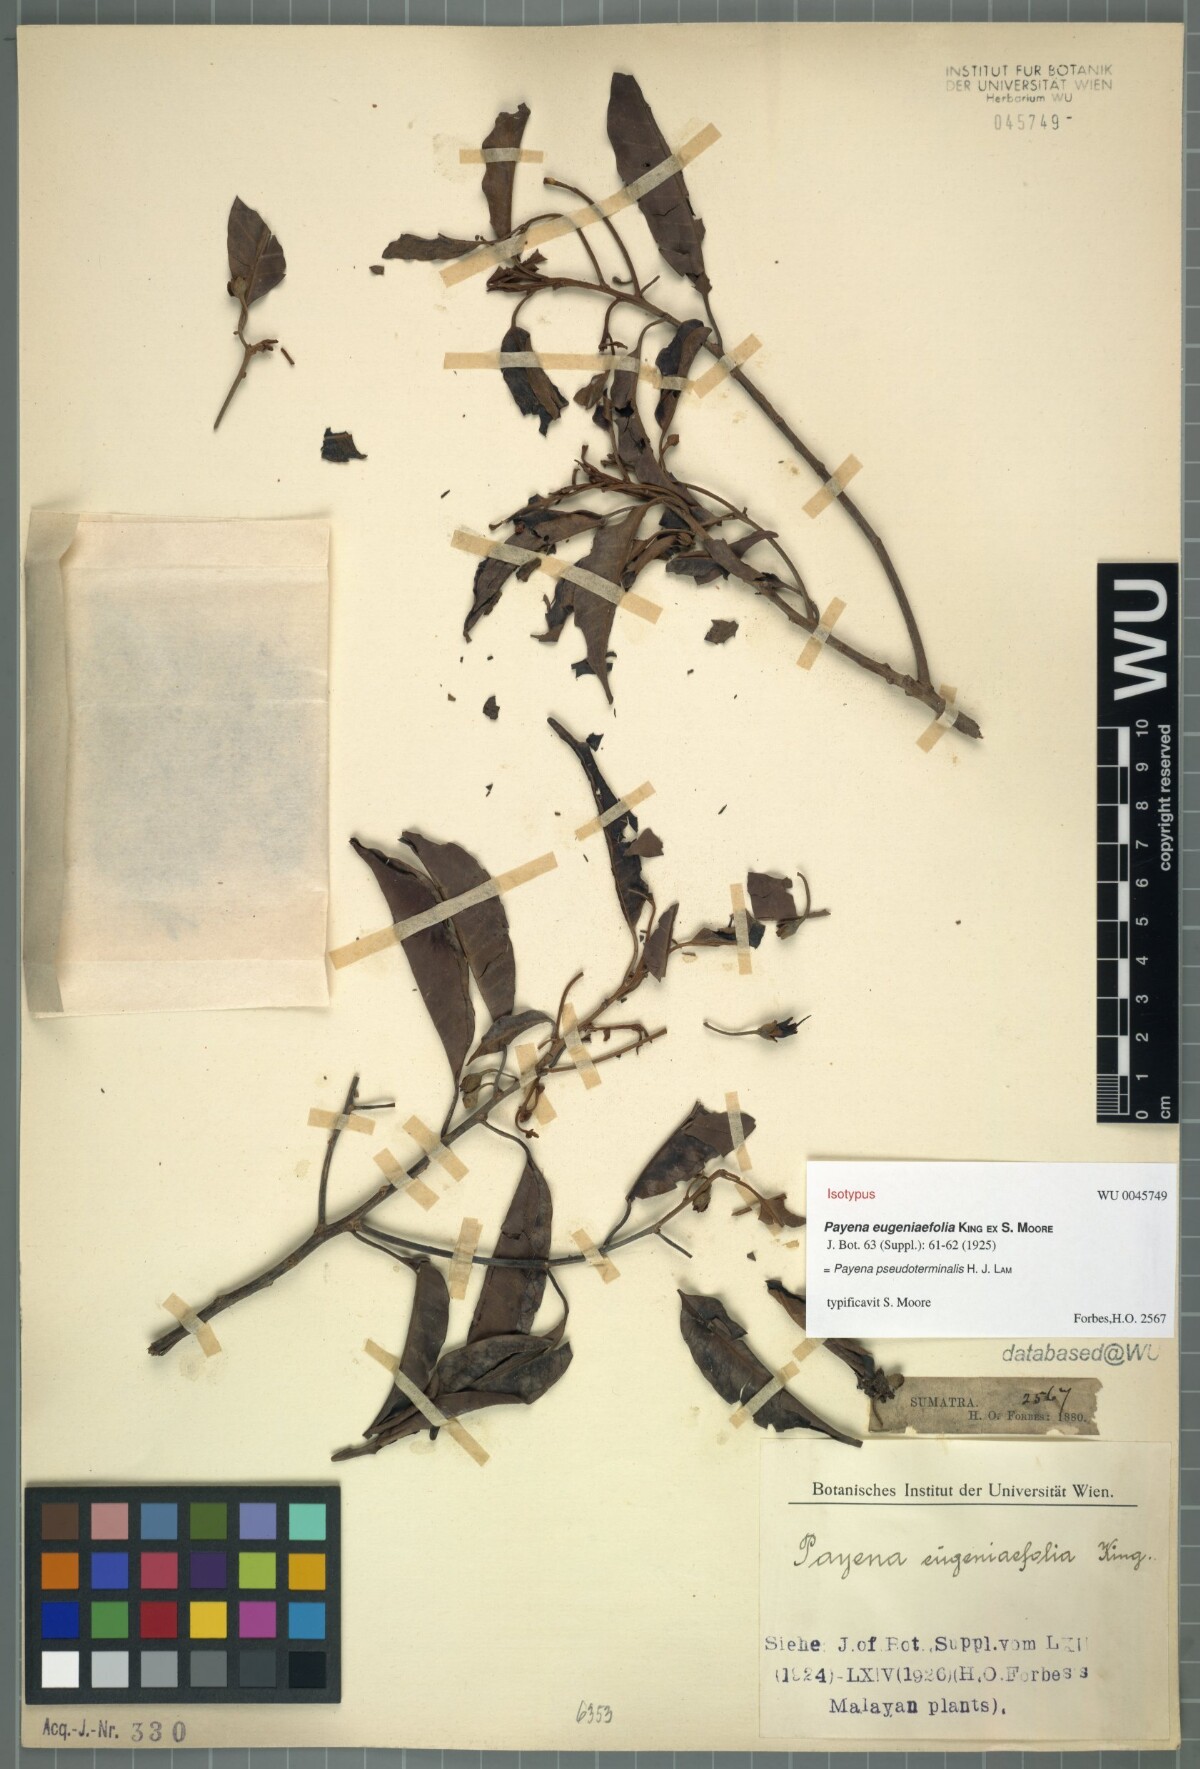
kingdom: Plantae
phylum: Tracheophyta
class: Magnoliopsida
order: Ericales
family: Sapotaceae
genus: Payena
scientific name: Payena pseudoterminalis
